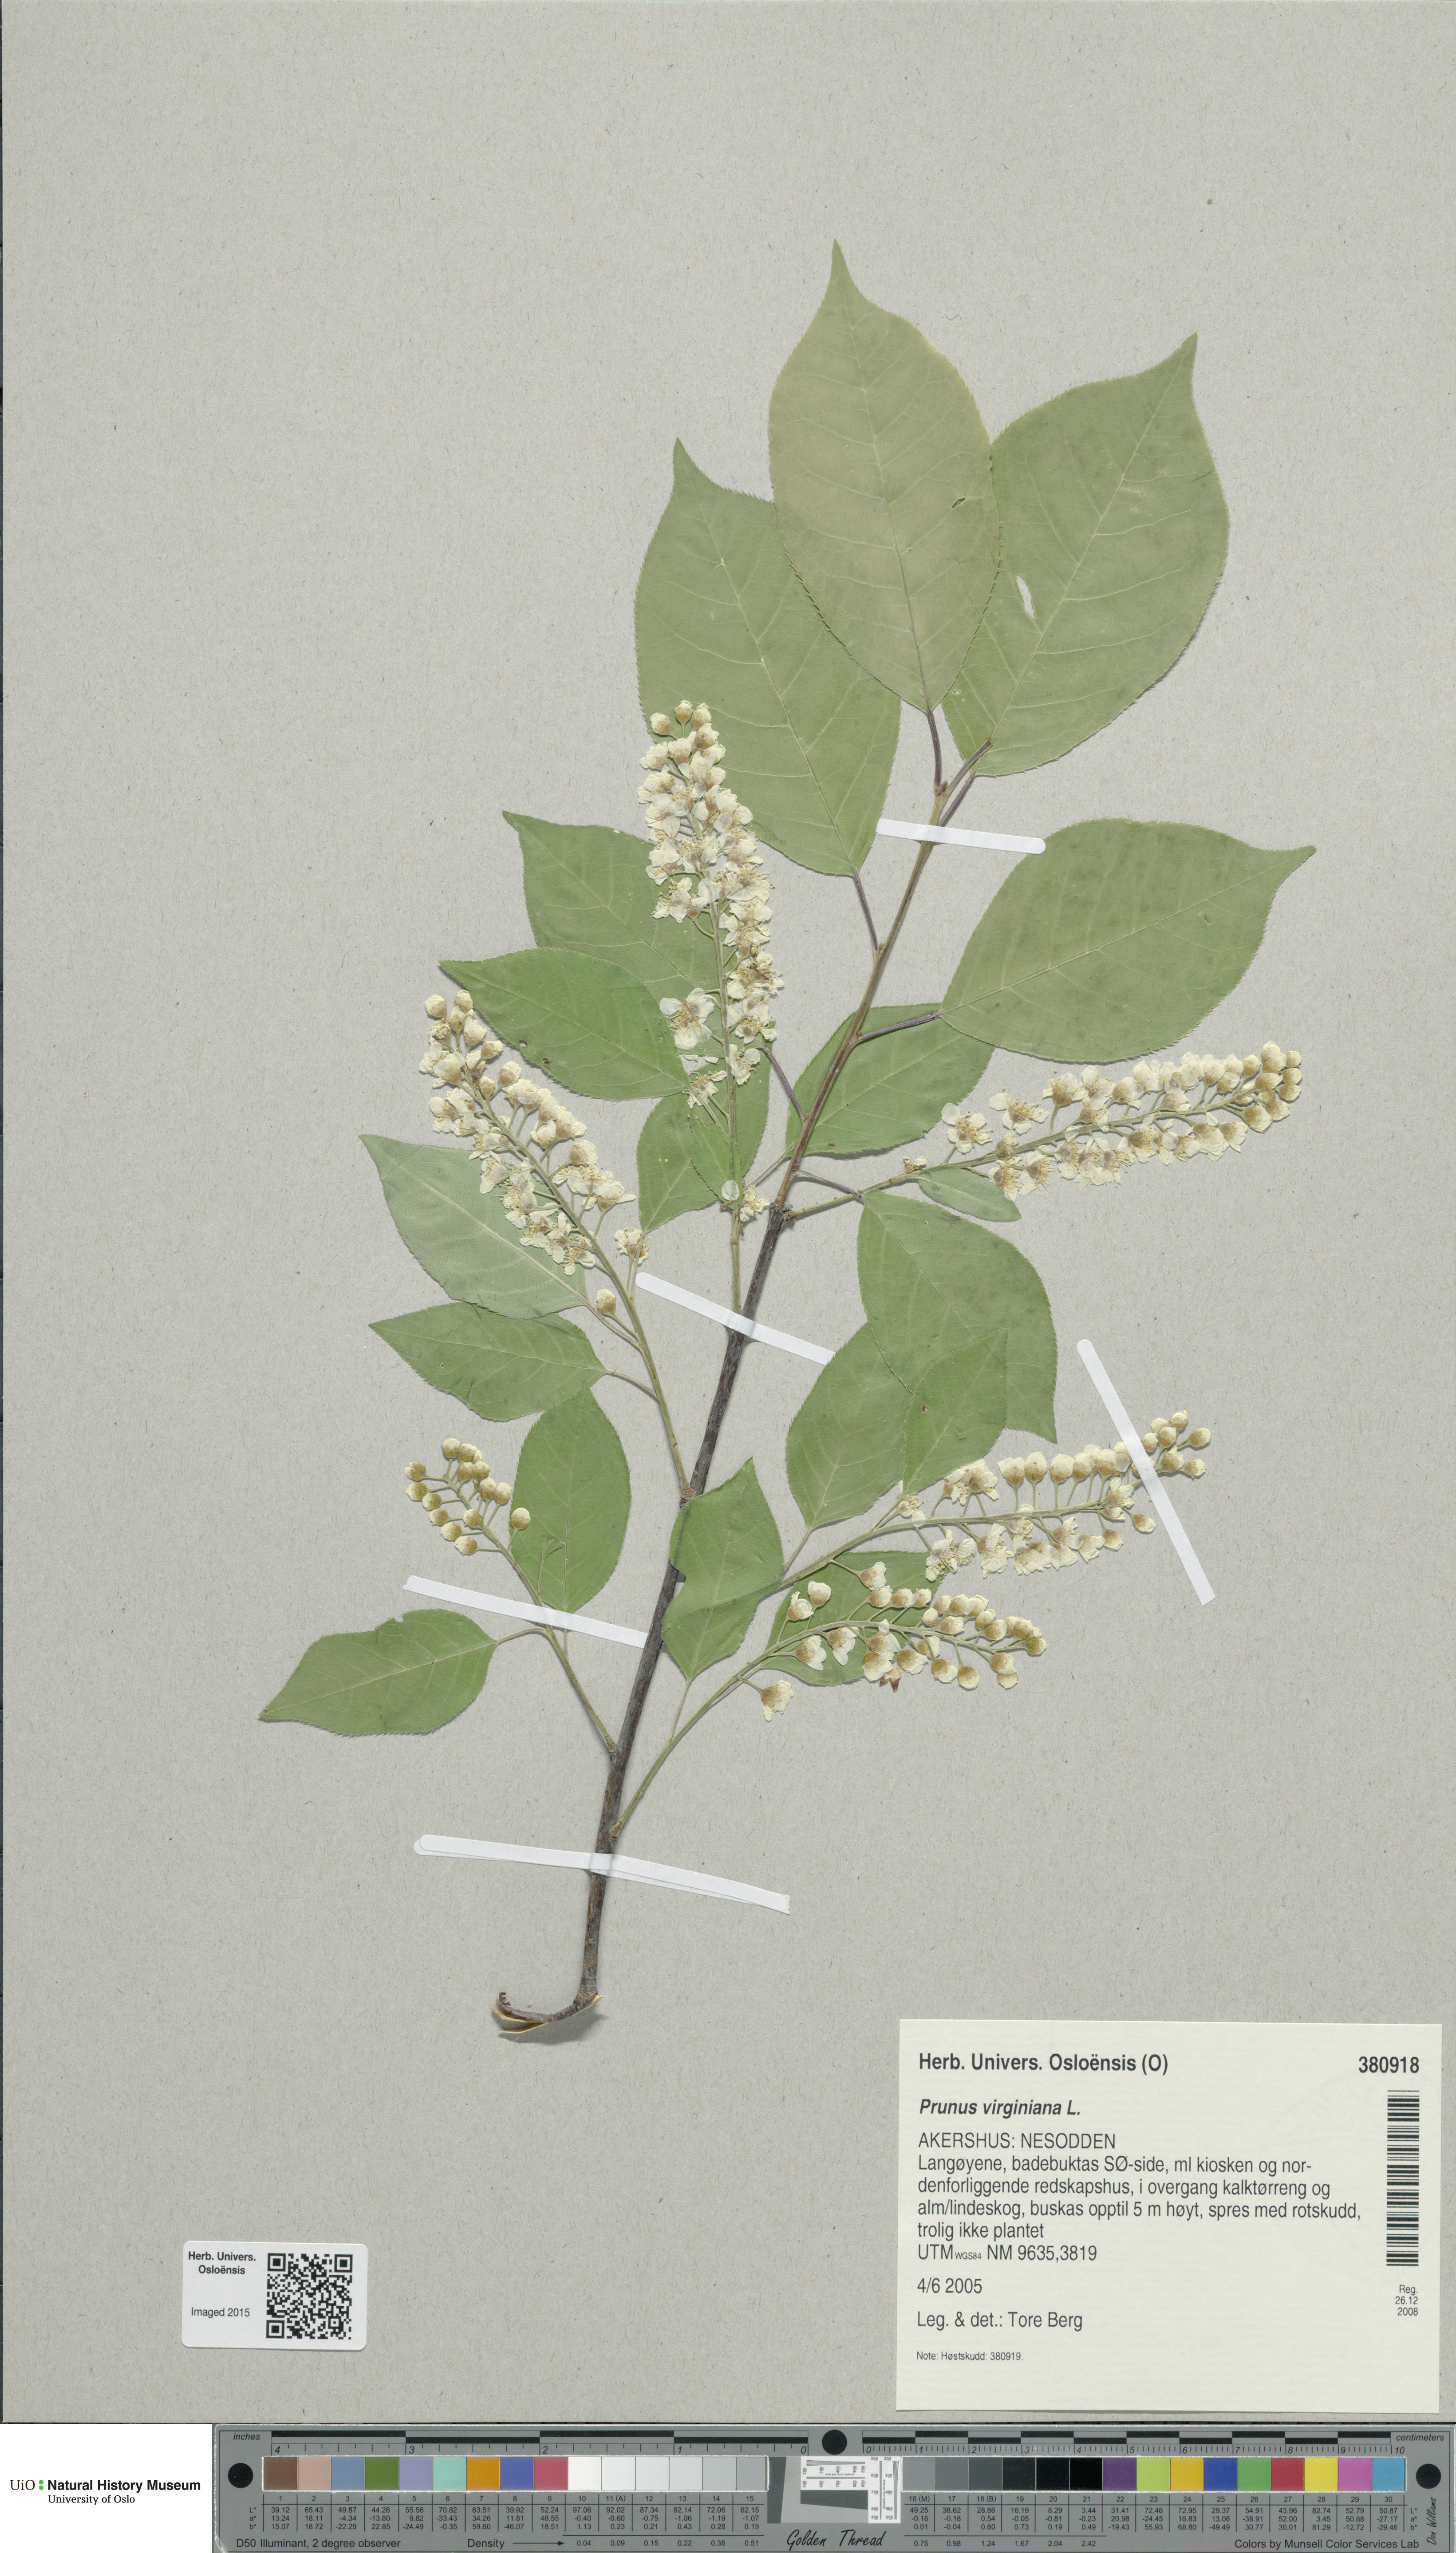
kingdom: Plantae
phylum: Tracheophyta
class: Magnoliopsida
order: Rosales
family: Rosaceae
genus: Prunus
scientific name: Prunus virginiana
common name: Chokecherry
